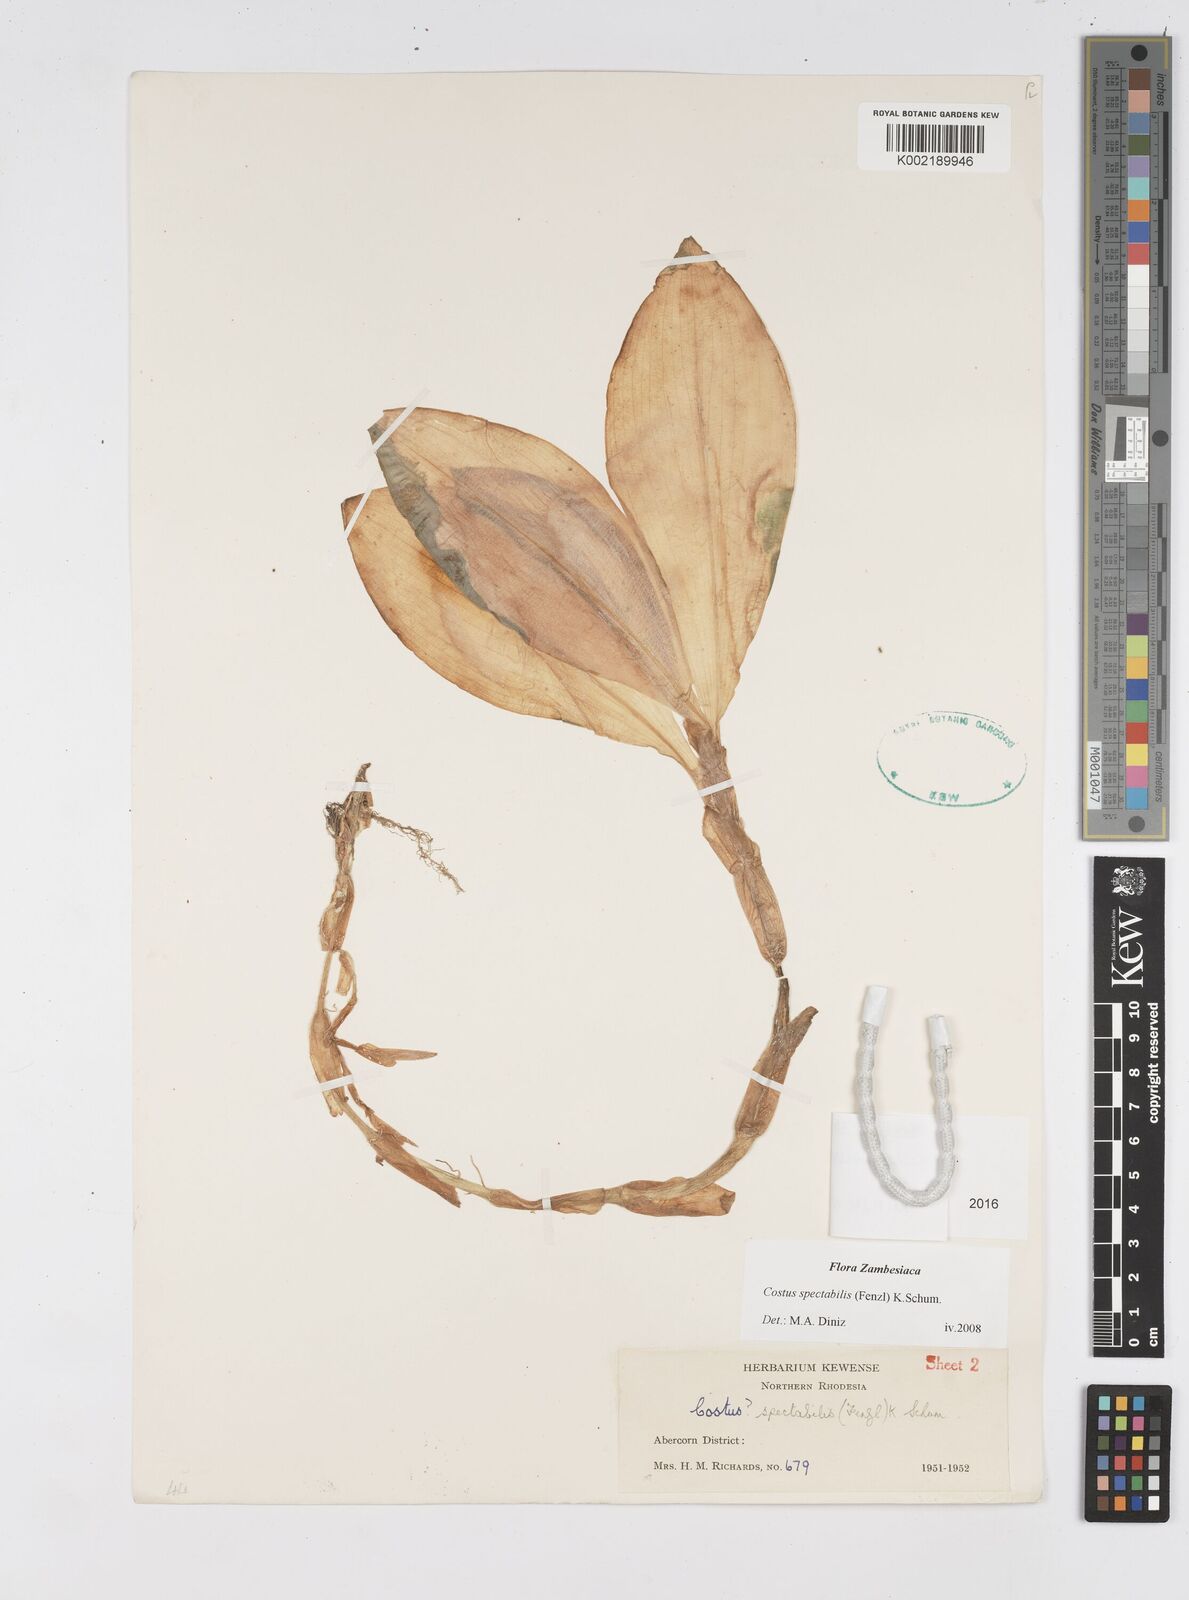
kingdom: Plantae
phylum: Tracheophyta
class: Liliopsida
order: Zingiberales
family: Costaceae
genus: Costus
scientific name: Costus spectabilis
